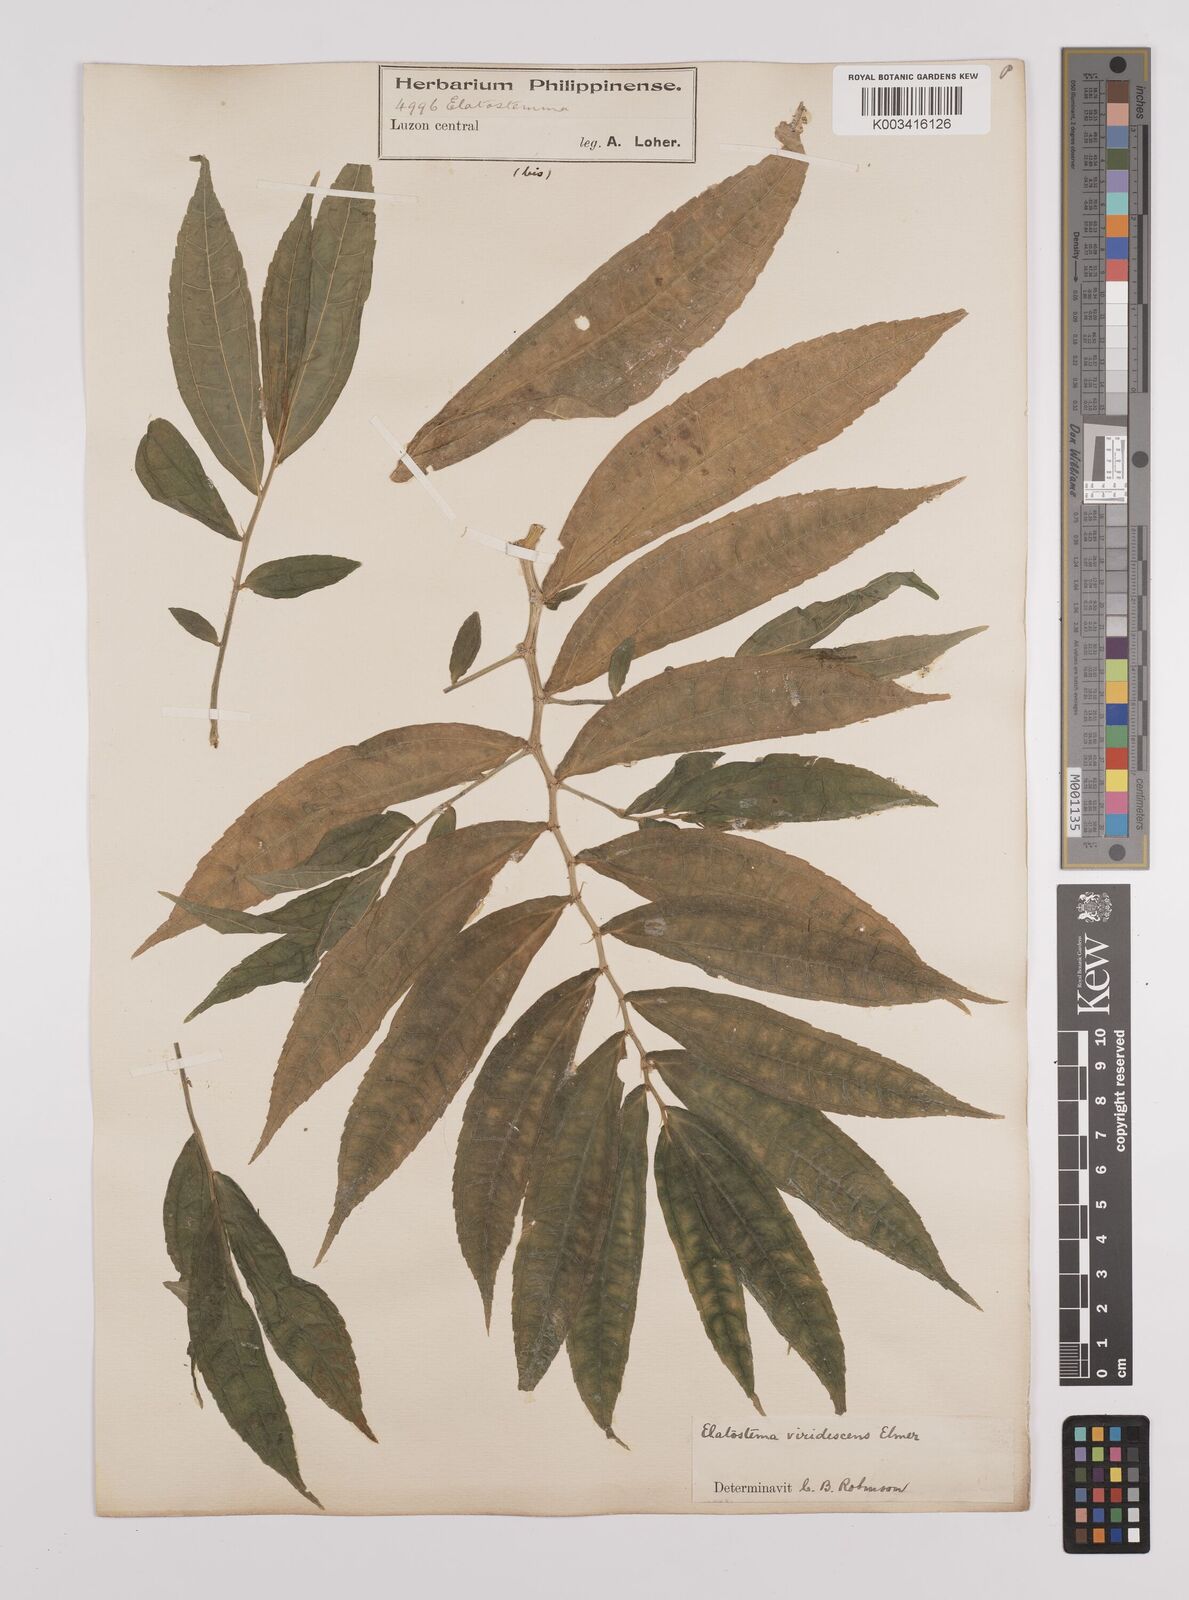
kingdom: Plantae
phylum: Tracheophyta
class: Magnoliopsida
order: Rosales
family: Urticaceae
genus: Elatostema
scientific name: Elatostema viridescens
